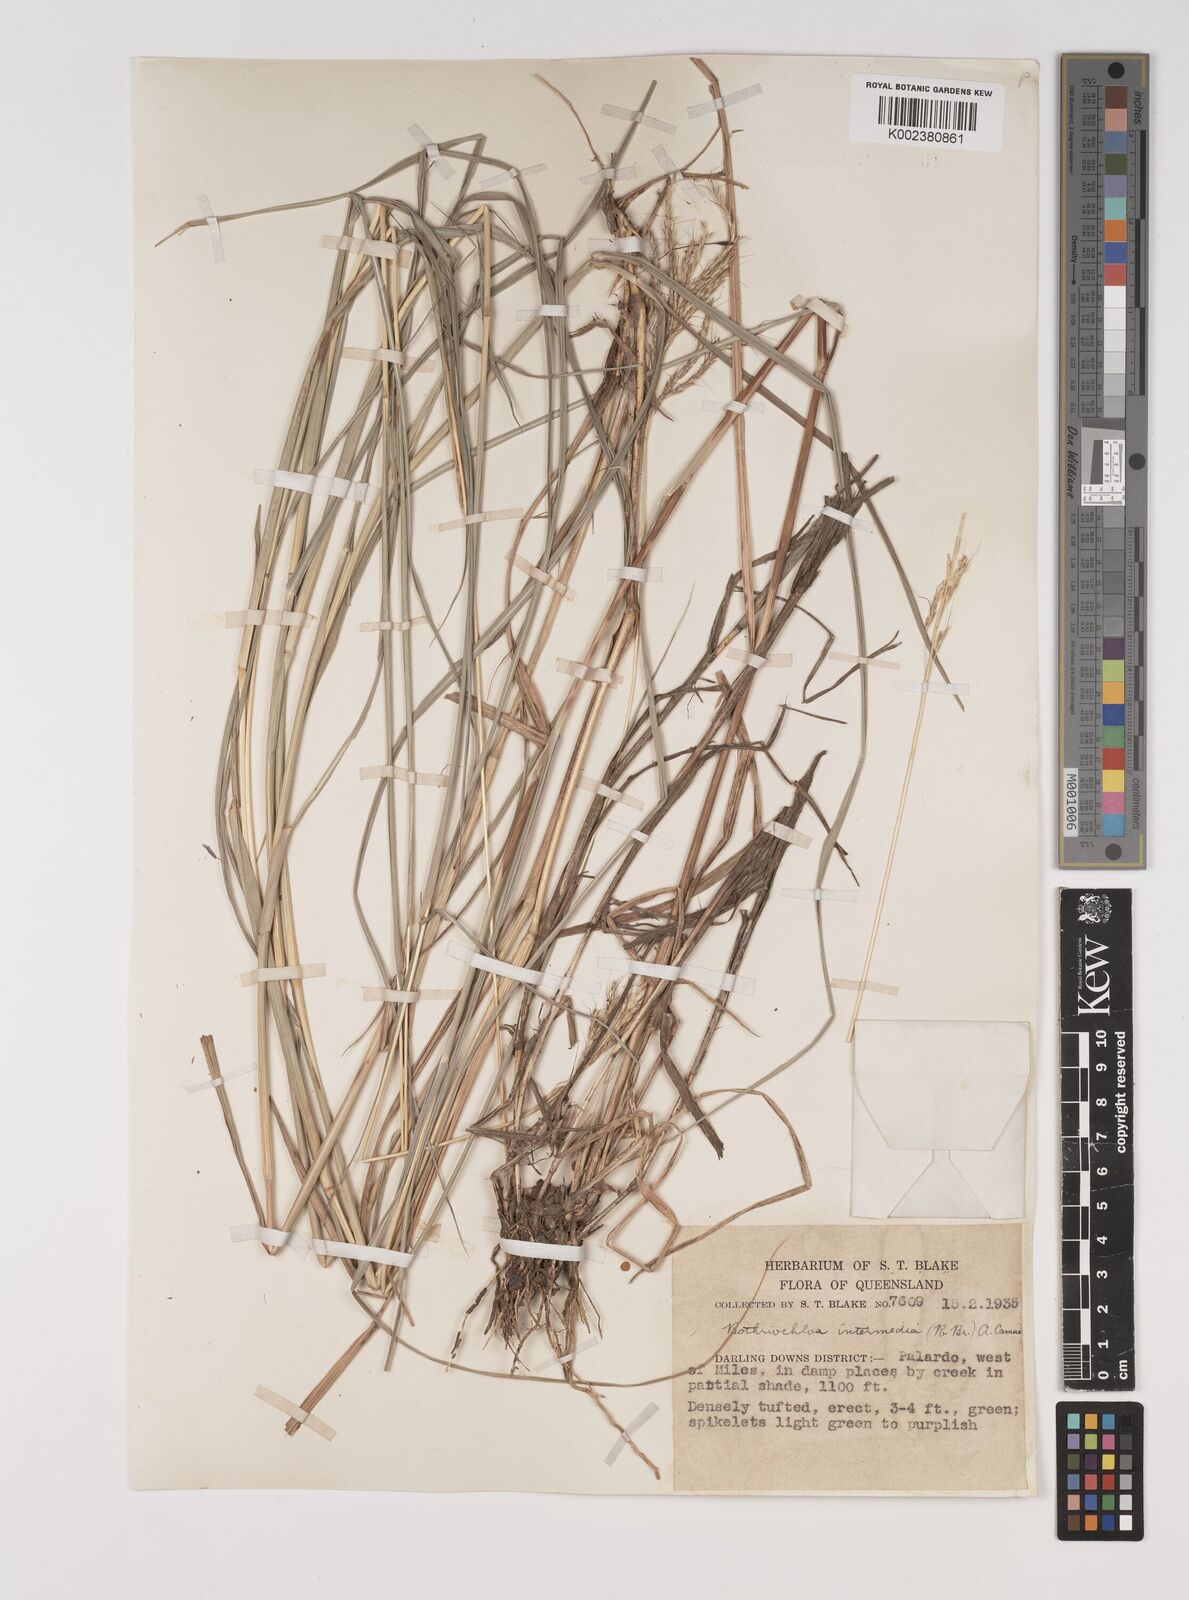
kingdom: Plantae
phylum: Tracheophyta
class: Liliopsida
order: Poales
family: Poaceae
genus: Bothriochloa
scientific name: Bothriochloa bladhii
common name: Caucasian bluestem
